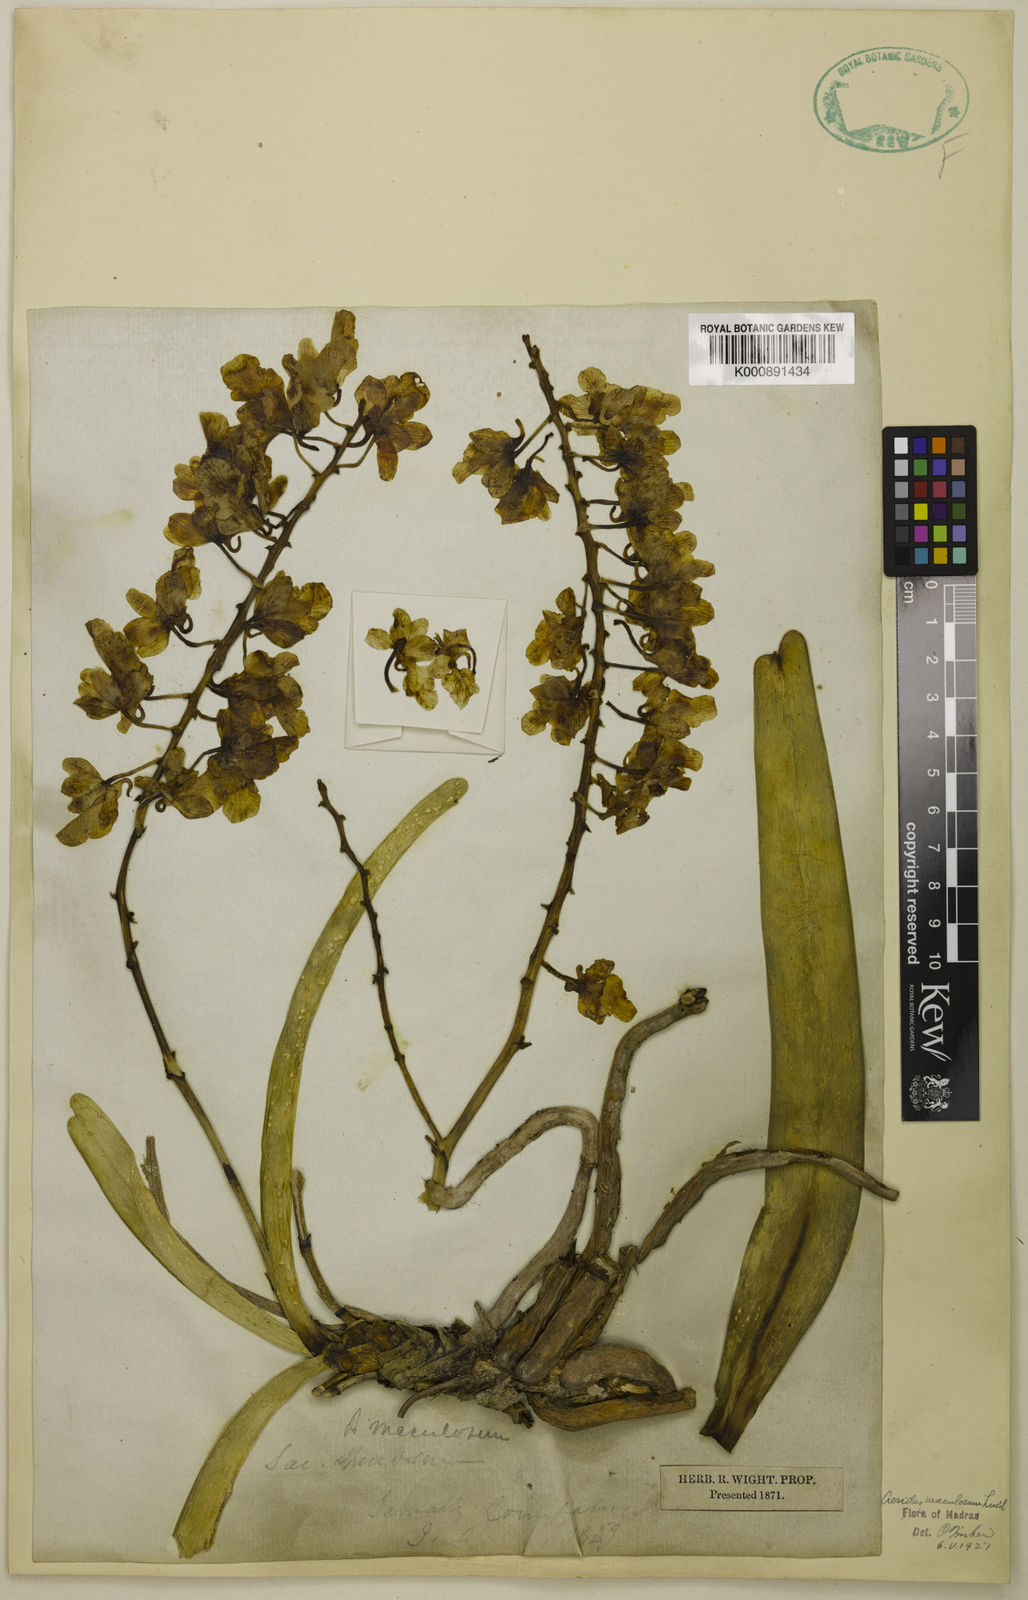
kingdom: Plantae
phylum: Tracheophyta
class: Liliopsida
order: Asparagales
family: Orchidaceae
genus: Aerides
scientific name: Aerides maculosa
